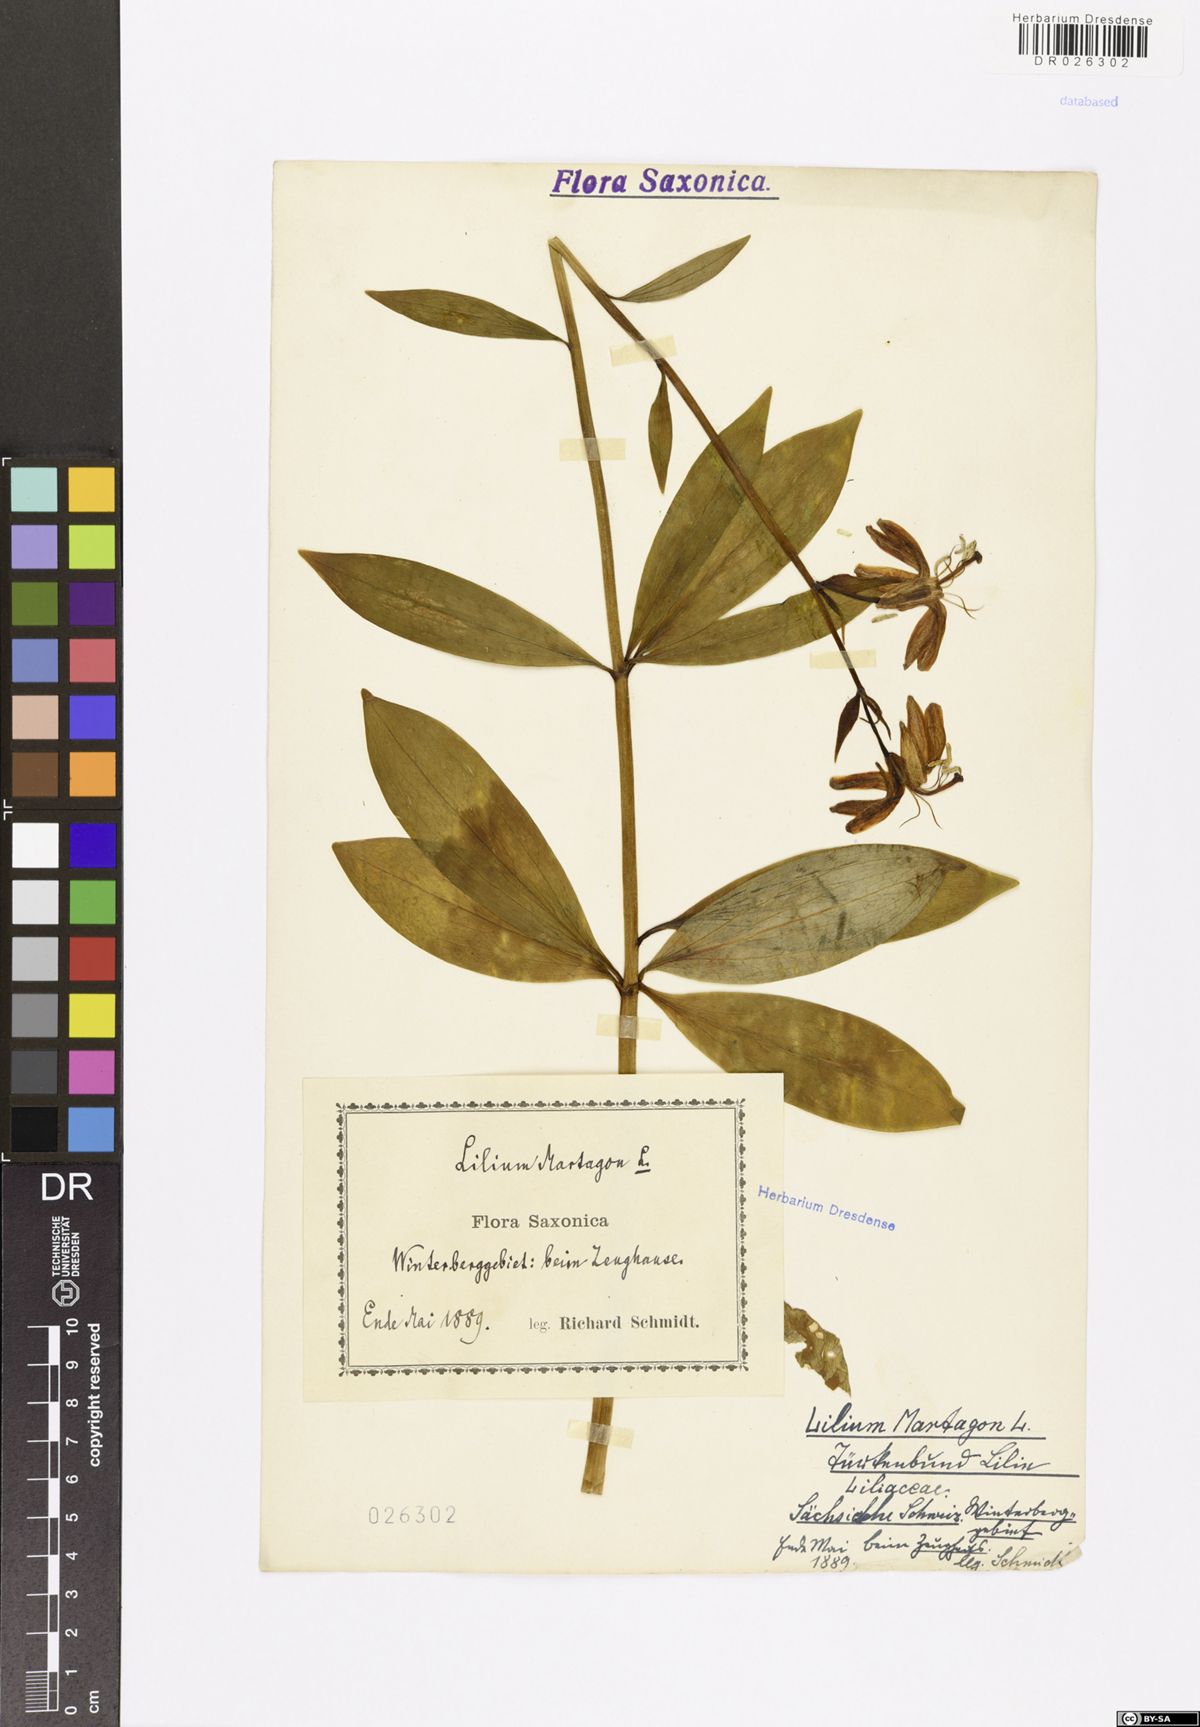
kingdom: Plantae
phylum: Tracheophyta
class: Liliopsida
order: Liliales
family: Liliaceae
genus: Lilium
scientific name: Lilium martagon
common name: Martagon lily
